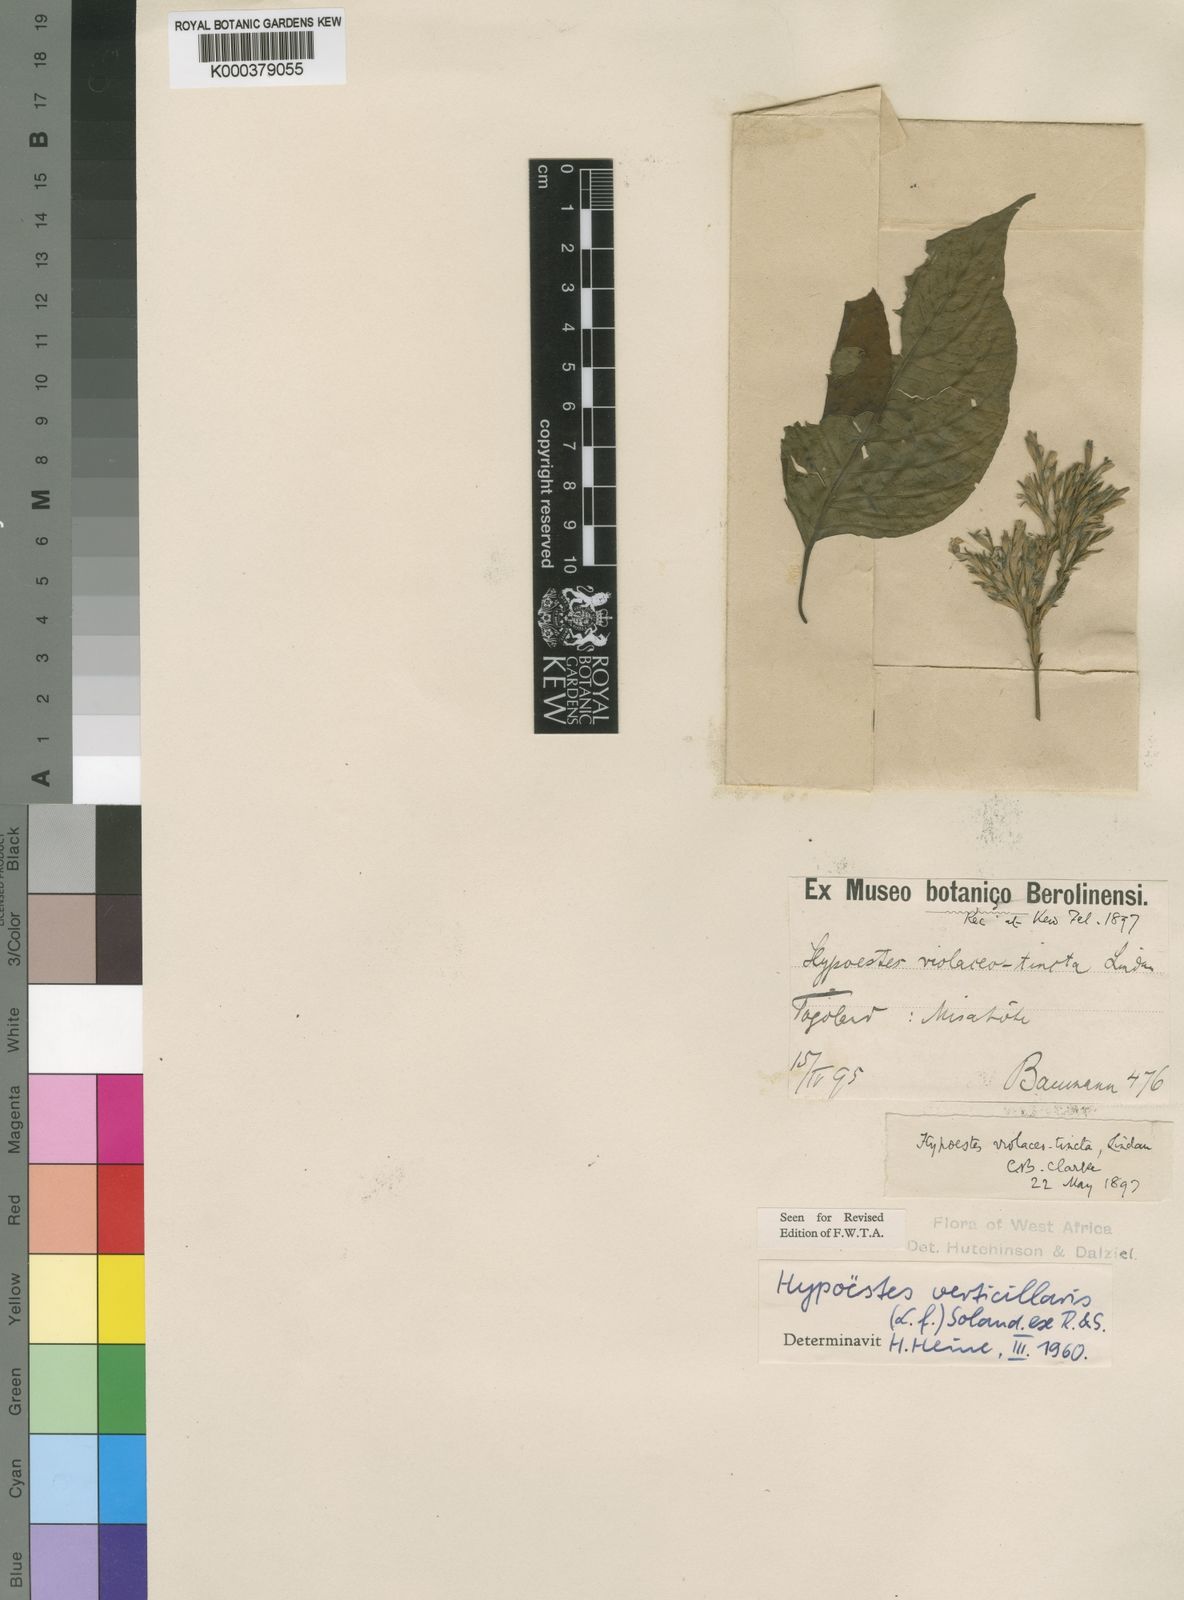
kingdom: Plantae
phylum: Tracheophyta
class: Magnoliopsida
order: Lamiales
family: Acanthaceae
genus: Hypoestes
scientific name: Hypoestes
